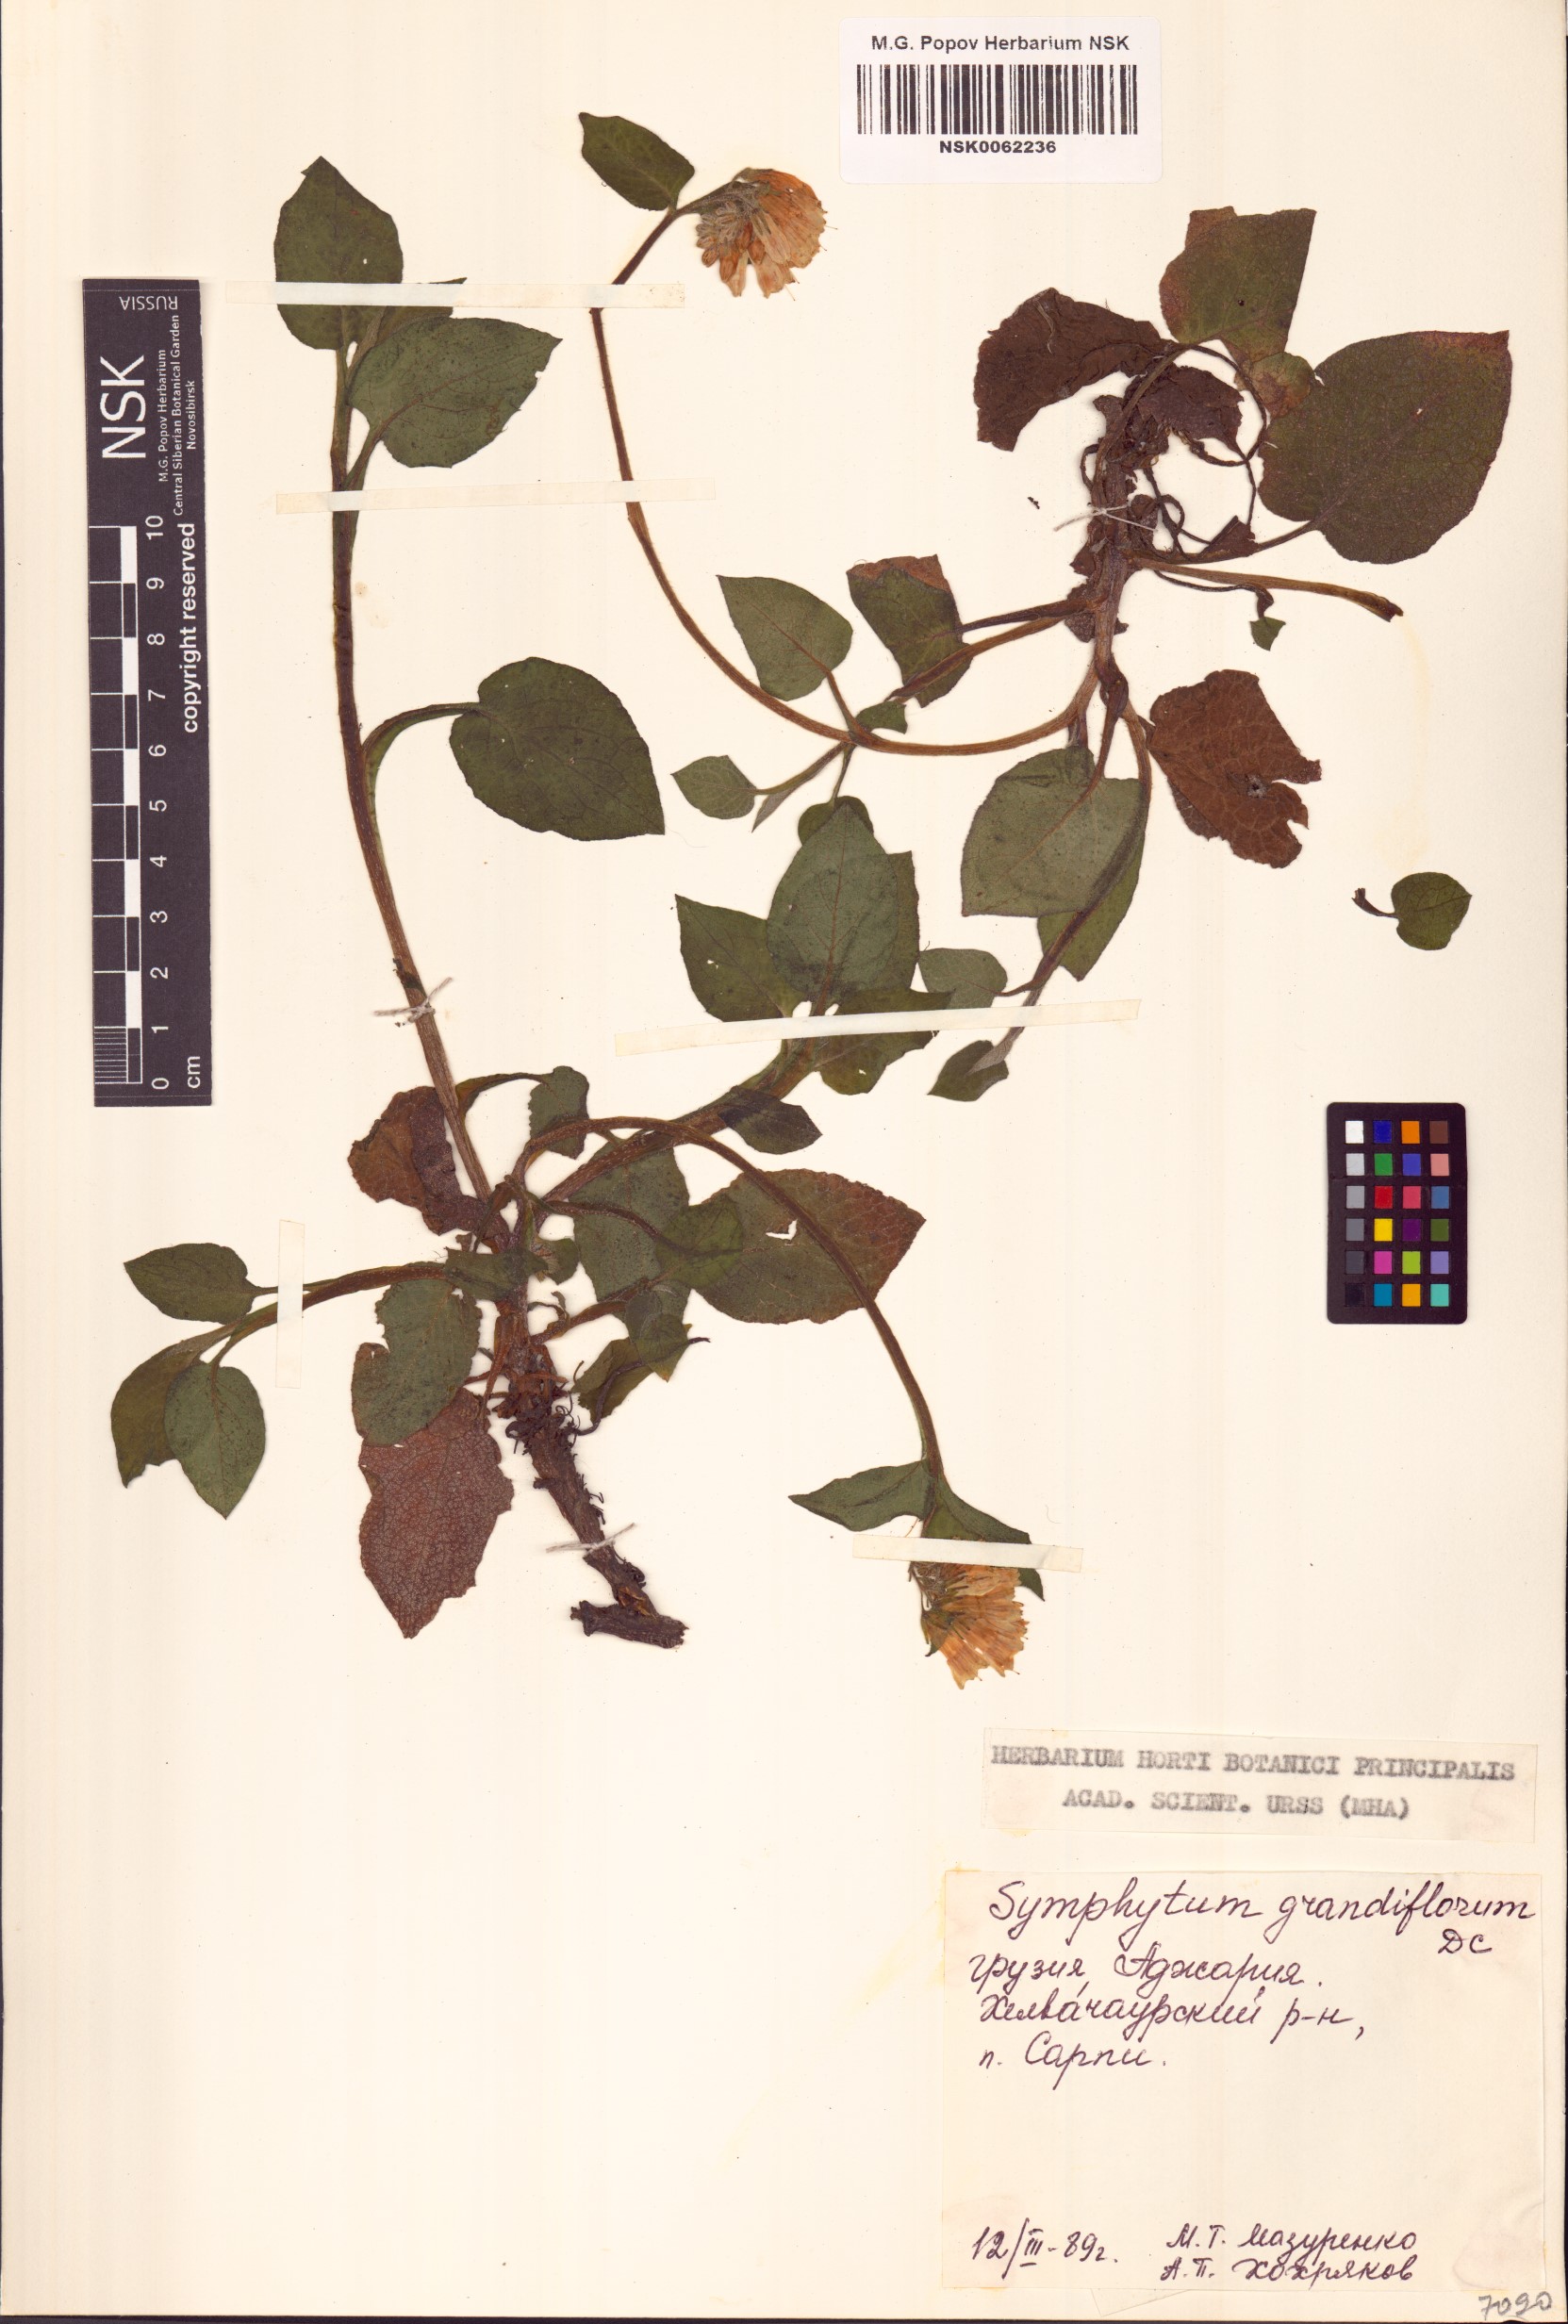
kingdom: Plantae
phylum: Tracheophyta
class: Magnoliopsida
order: Boraginales
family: Boraginaceae
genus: Symphytum
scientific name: Symphytum grandiflorum
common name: Creeping comfrey
